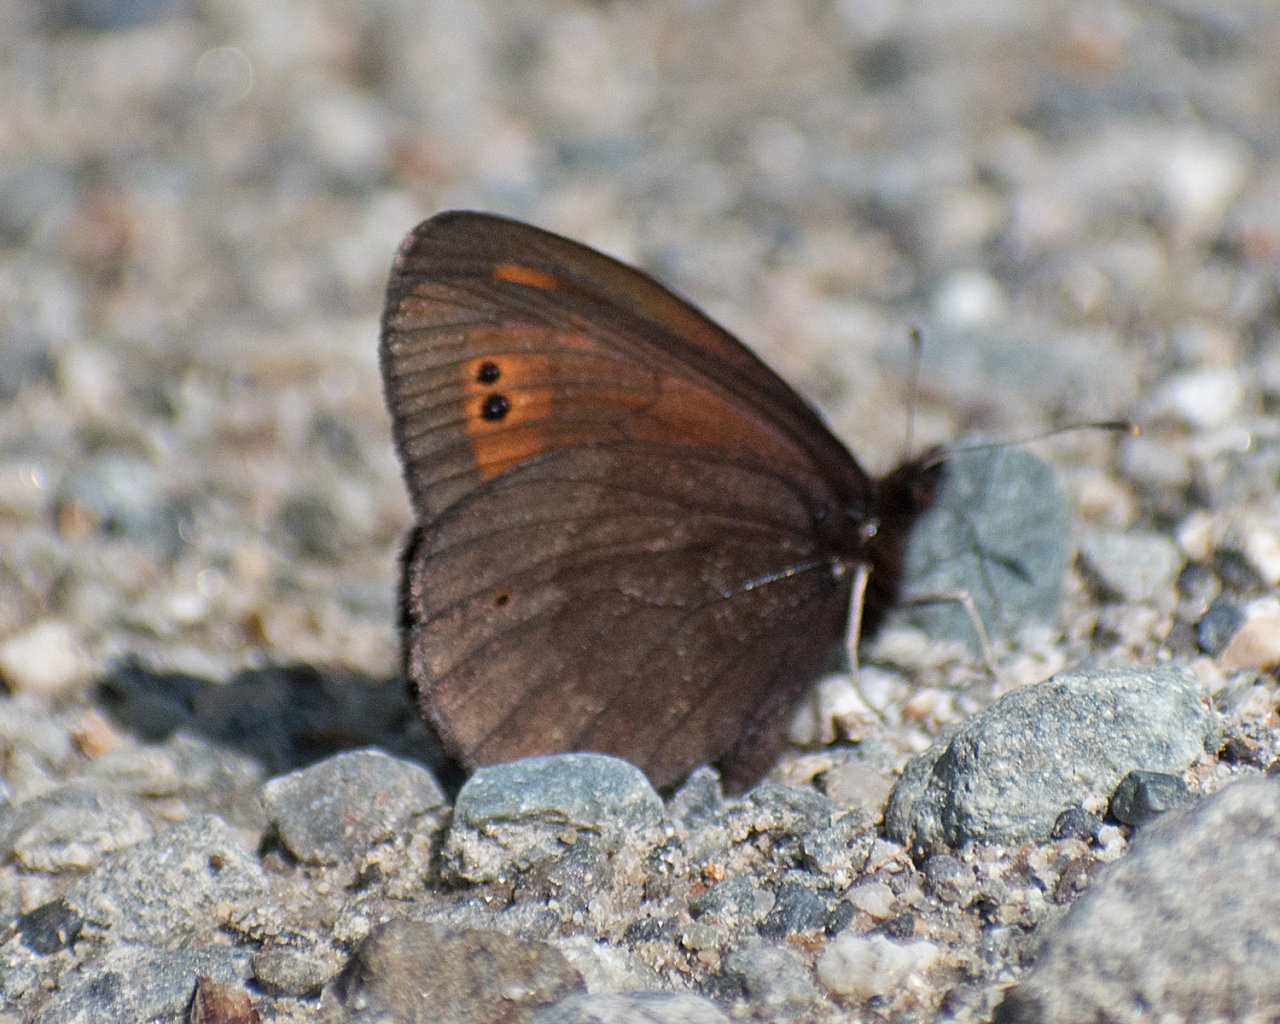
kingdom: Animalia
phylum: Arthropoda
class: Insecta
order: Lepidoptera
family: Nymphalidae
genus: Erebia
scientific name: Erebia epipsodea
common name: Common Alpine
